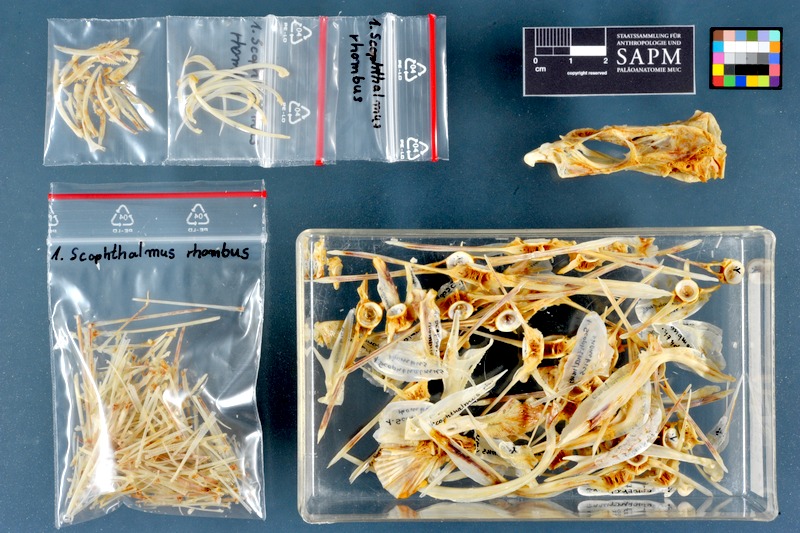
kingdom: Animalia
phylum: Chordata
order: Pleuronectiformes
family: Scophthalmidae
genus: Scophthalmus
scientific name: Scophthalmus rhombus
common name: Brill
